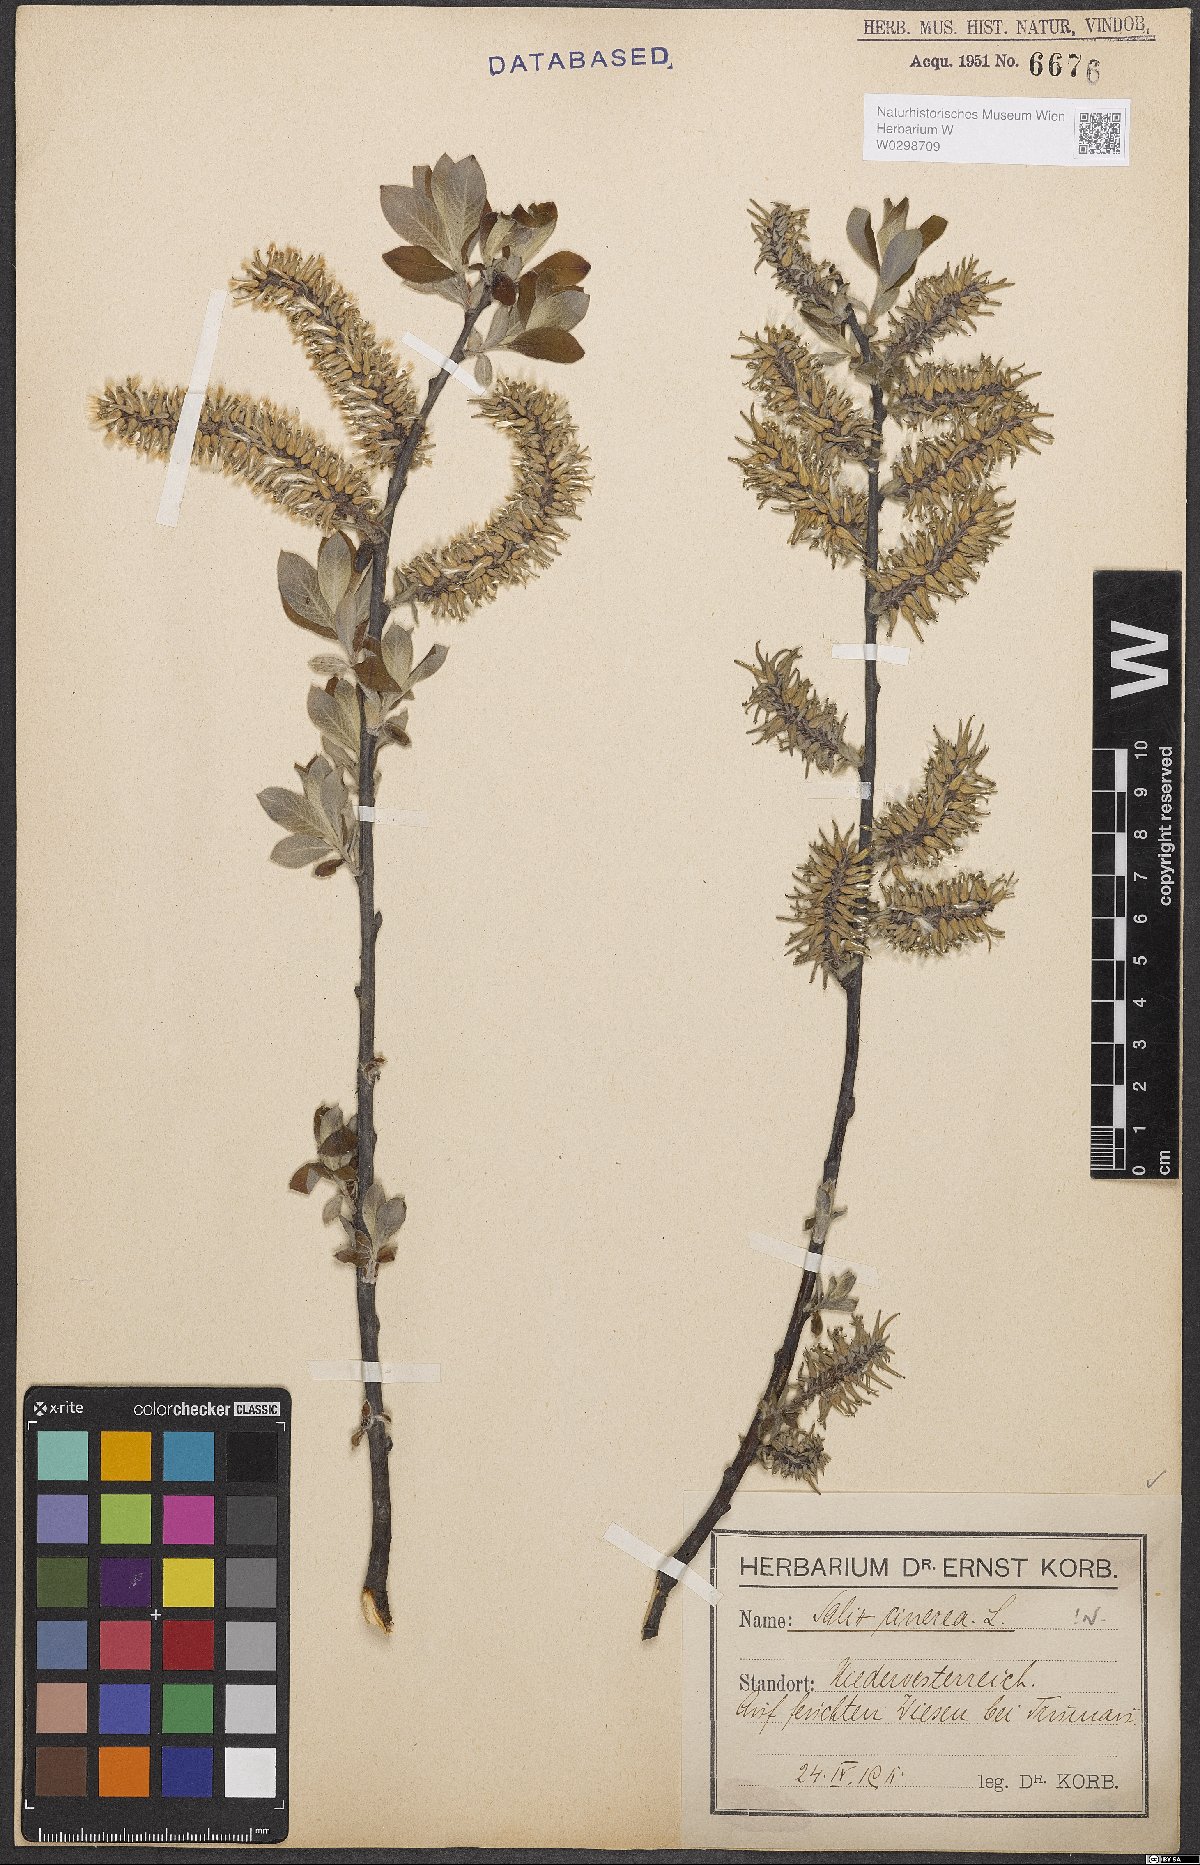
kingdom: Plantae
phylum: Tracheophyta
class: Magnoliopsida
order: Malpighiales
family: Salicaceae
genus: Salix
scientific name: Salix cinerea
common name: Common sallow
